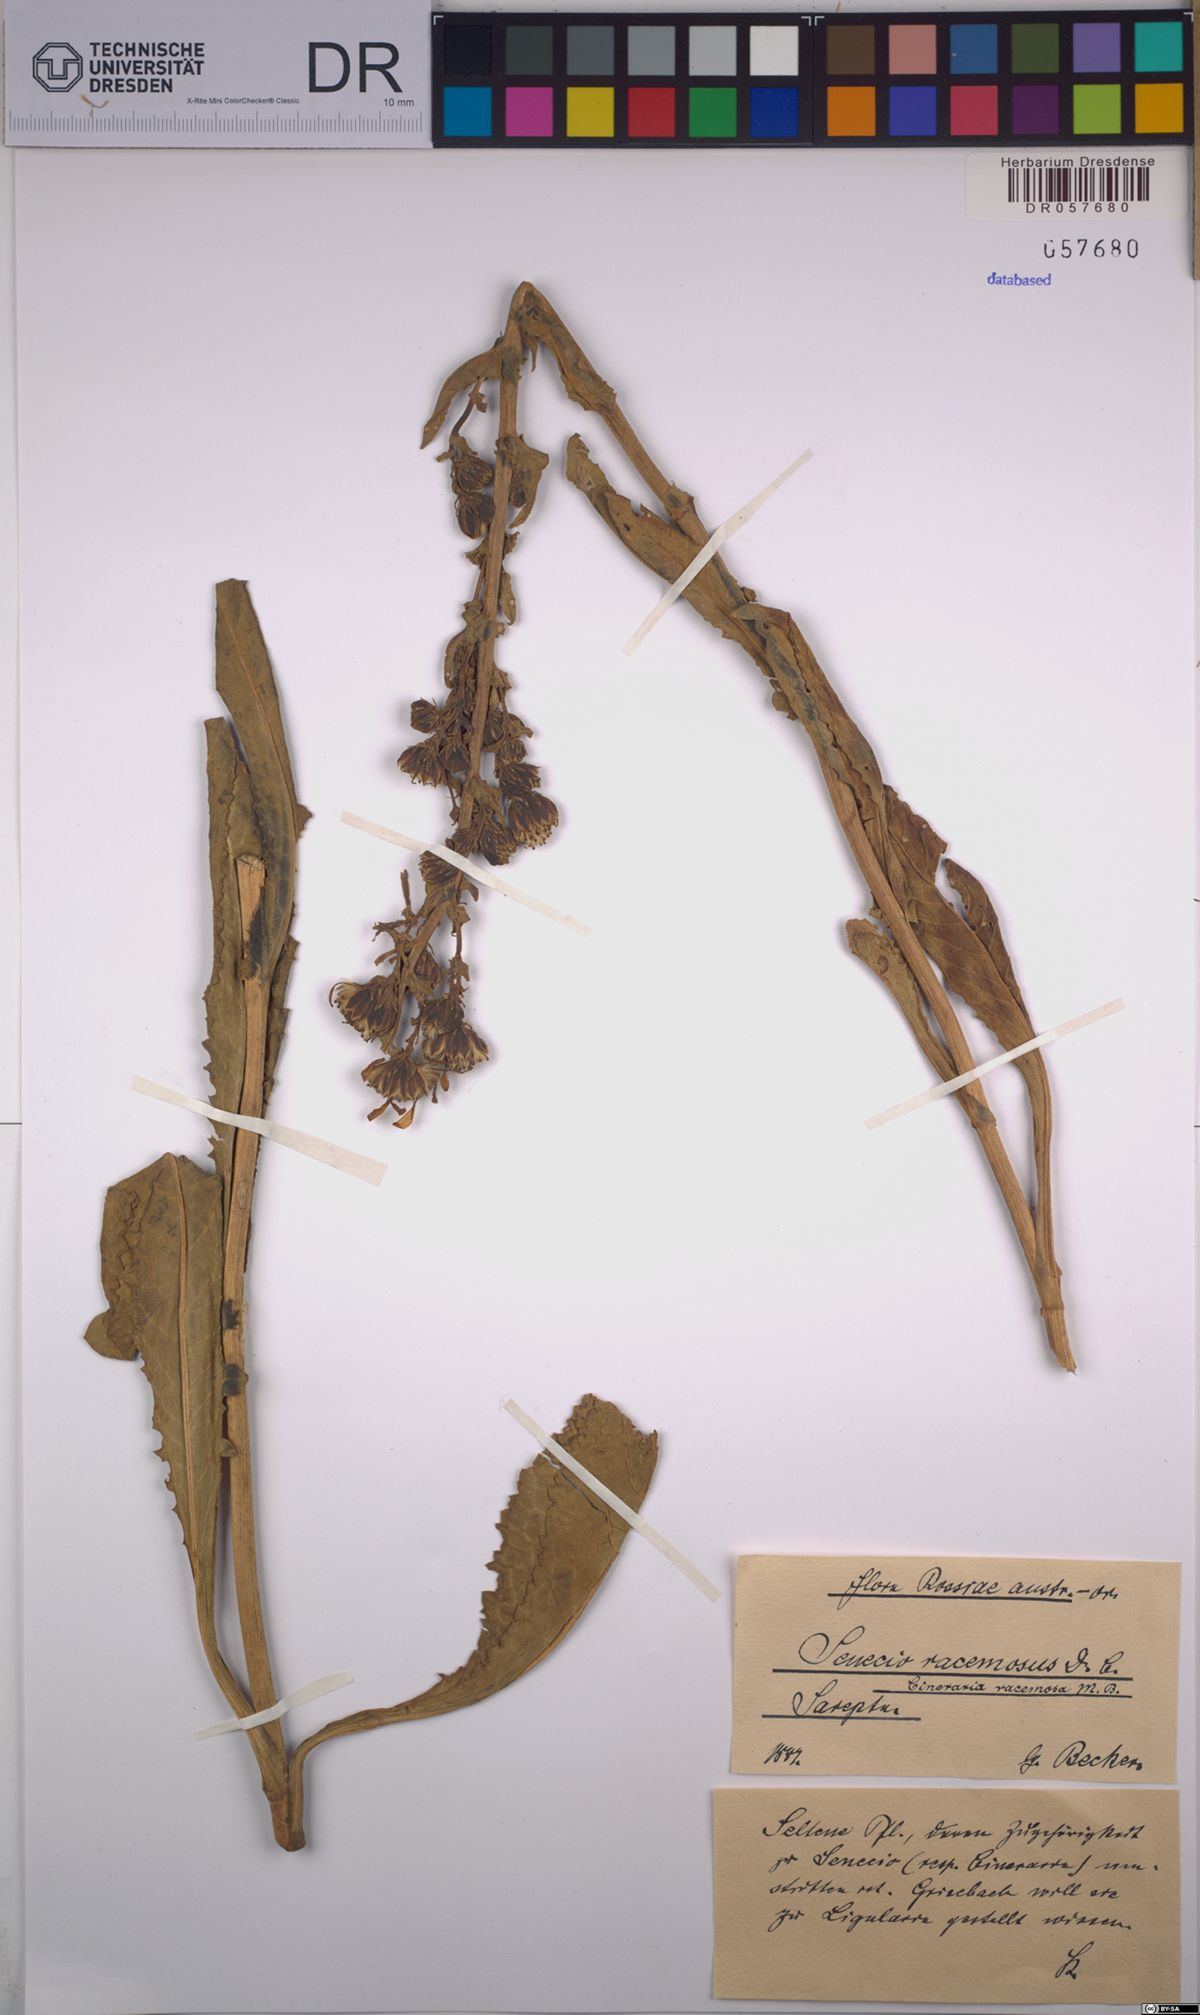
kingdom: Plantae
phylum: Tracheophyta
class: Magnoliopsida
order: Asterales
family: Asteraceae
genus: Jacobaea
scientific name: Jacobaea racemosa
